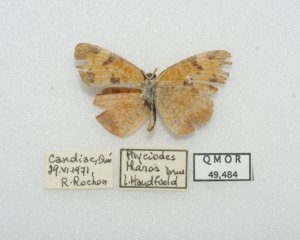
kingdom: Animalia
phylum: Arthropoda
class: Insecta
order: Lepidoptera
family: Nymphalidae
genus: Phyciodes
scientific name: Phyciodes tharos
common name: Northern Crescent
